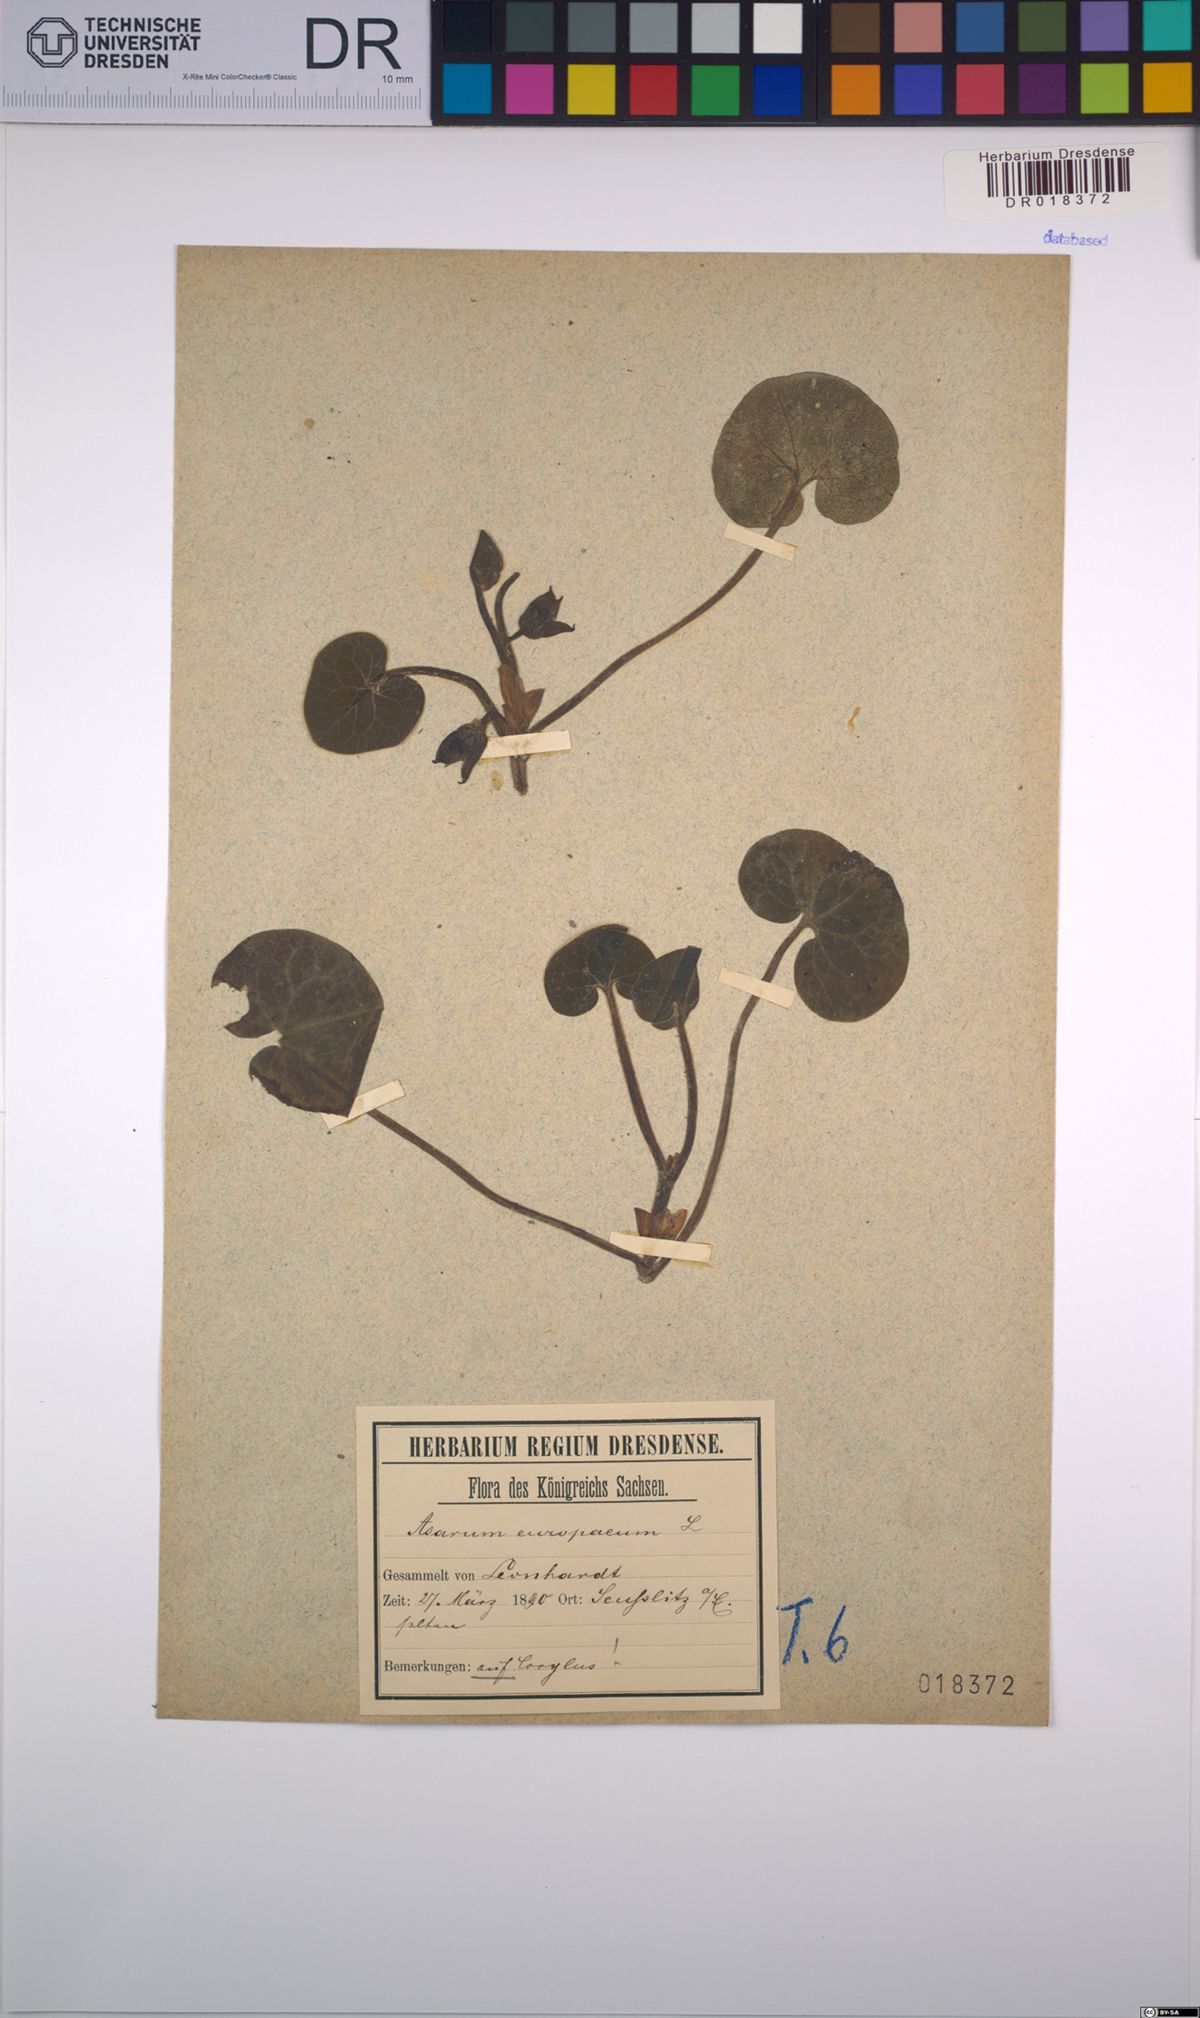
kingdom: Plantae
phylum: Tracheophyta
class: Magnoliopsida
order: Piperales
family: Aristolochiaceae
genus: Asarum
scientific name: Asarum europaeum
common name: Asarabacca
